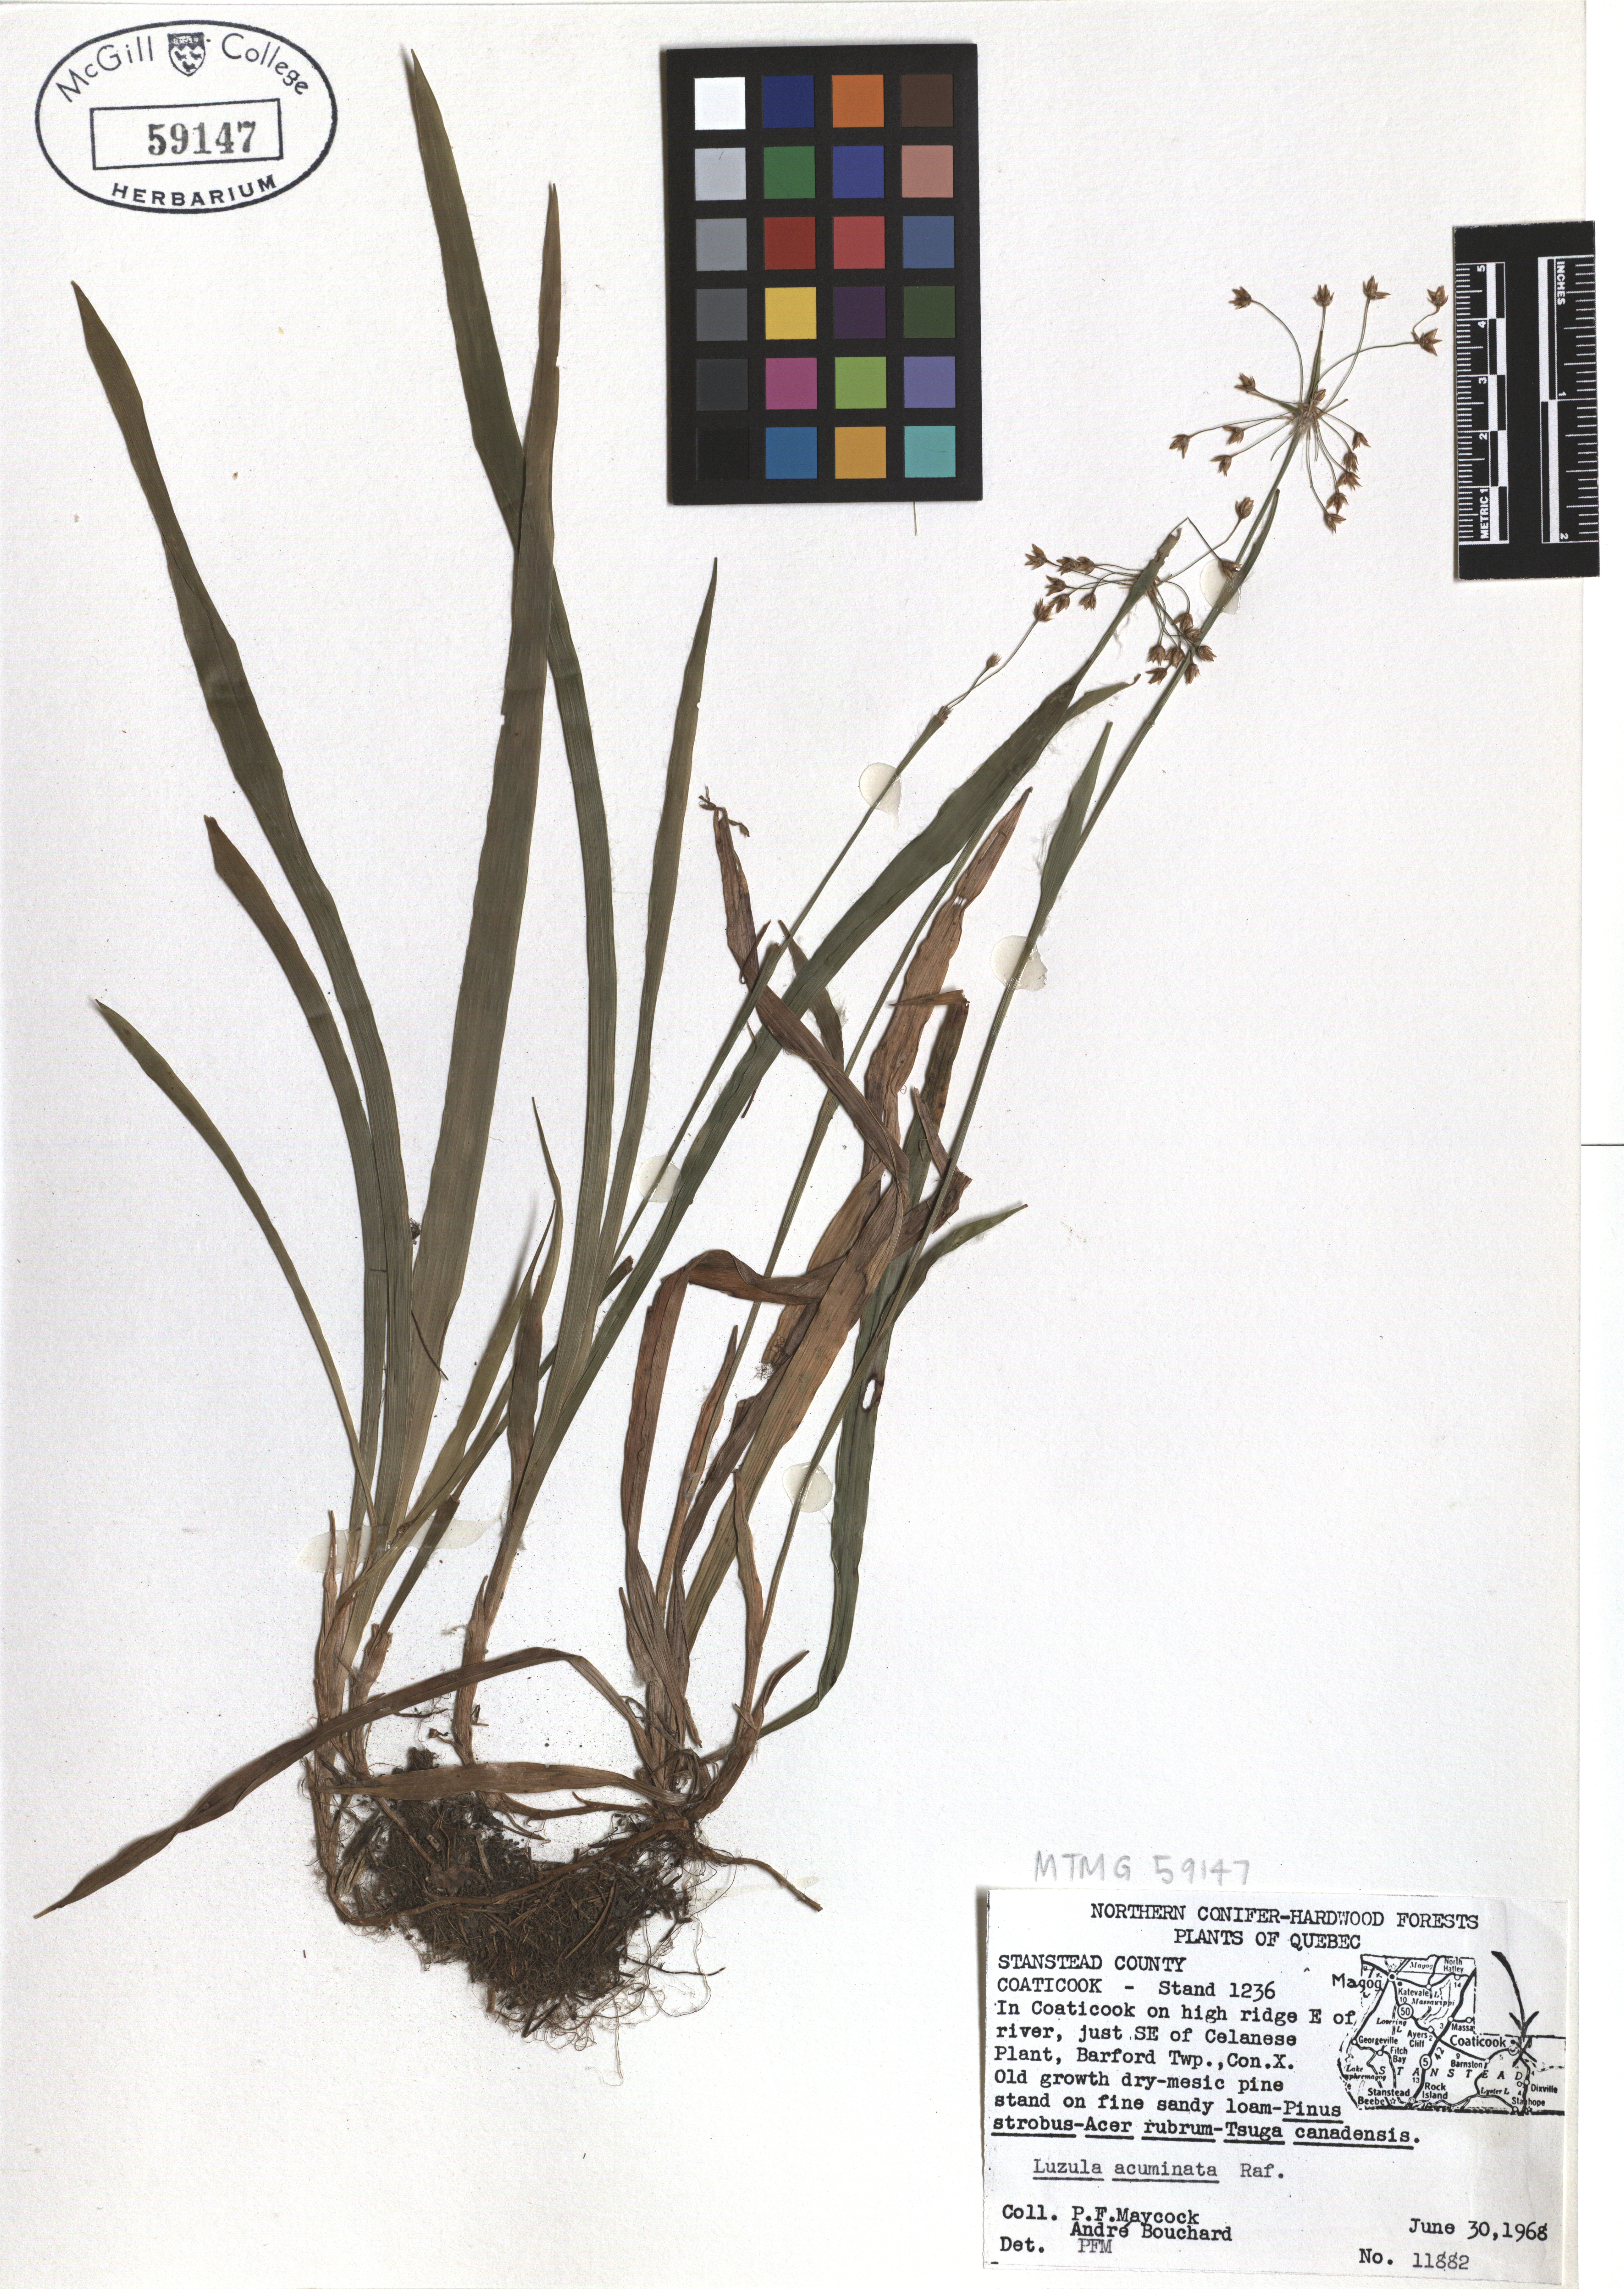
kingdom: Plantae
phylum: Tracheophyta
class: Liliopsida
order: Poales
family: Juncaceae
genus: Luzula
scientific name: Luzula acuminata
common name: Hairy woodrush
